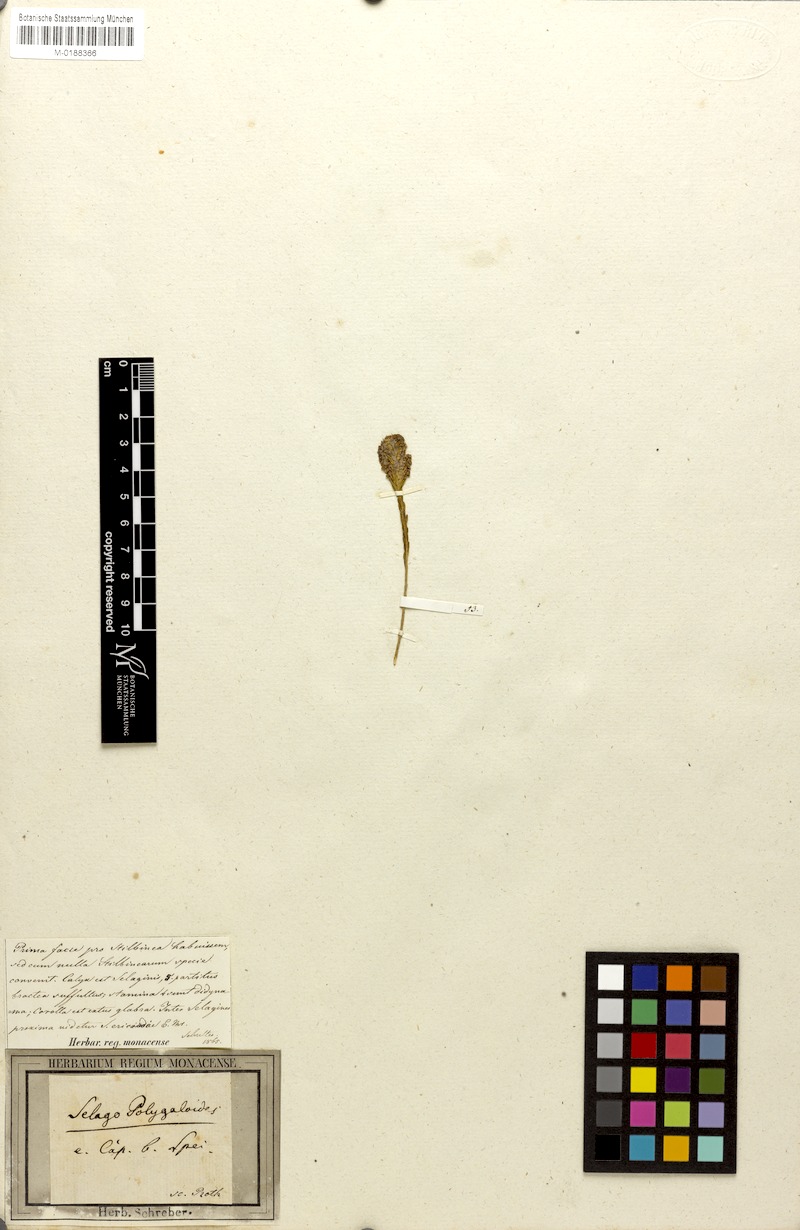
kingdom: Plantae
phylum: Tracheophyta
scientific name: Tracheophyta
